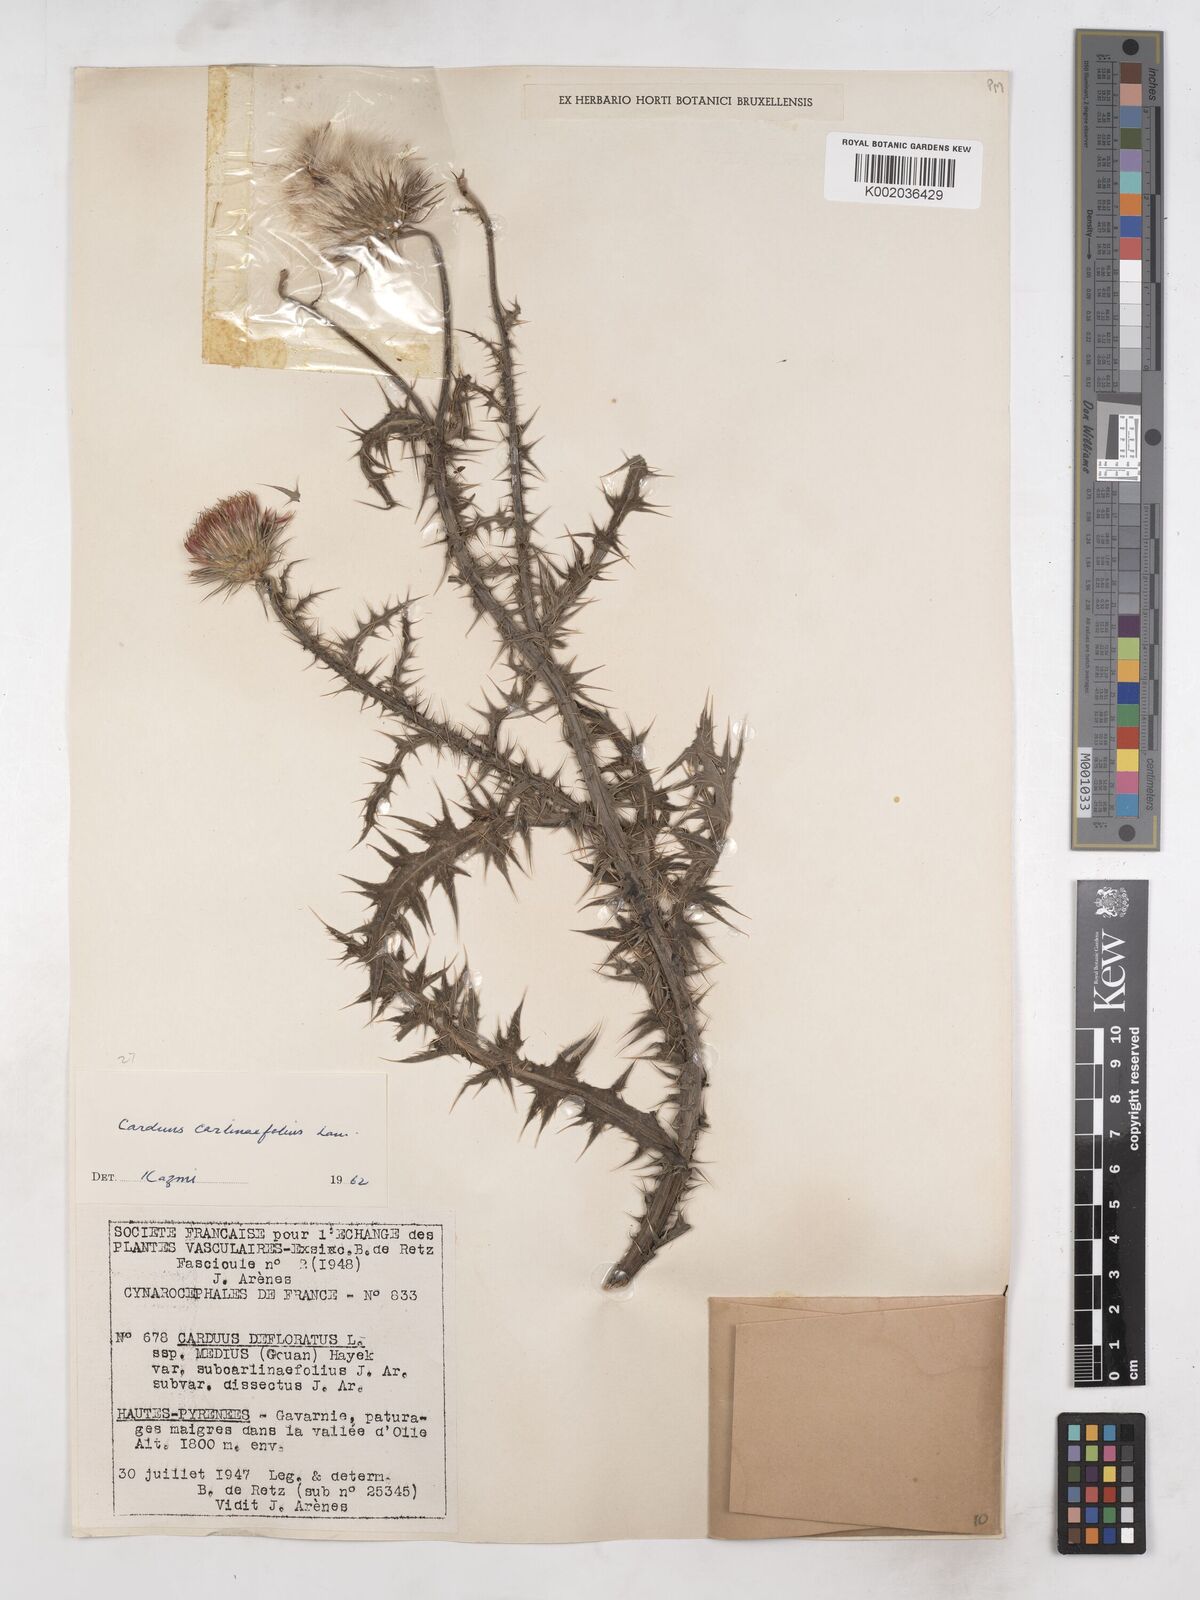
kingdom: Plantae
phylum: Tracheophyta
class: Magnoliopsida
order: Asterales
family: Asteraceae
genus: Carduus
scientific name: Carduus carlinifolius
